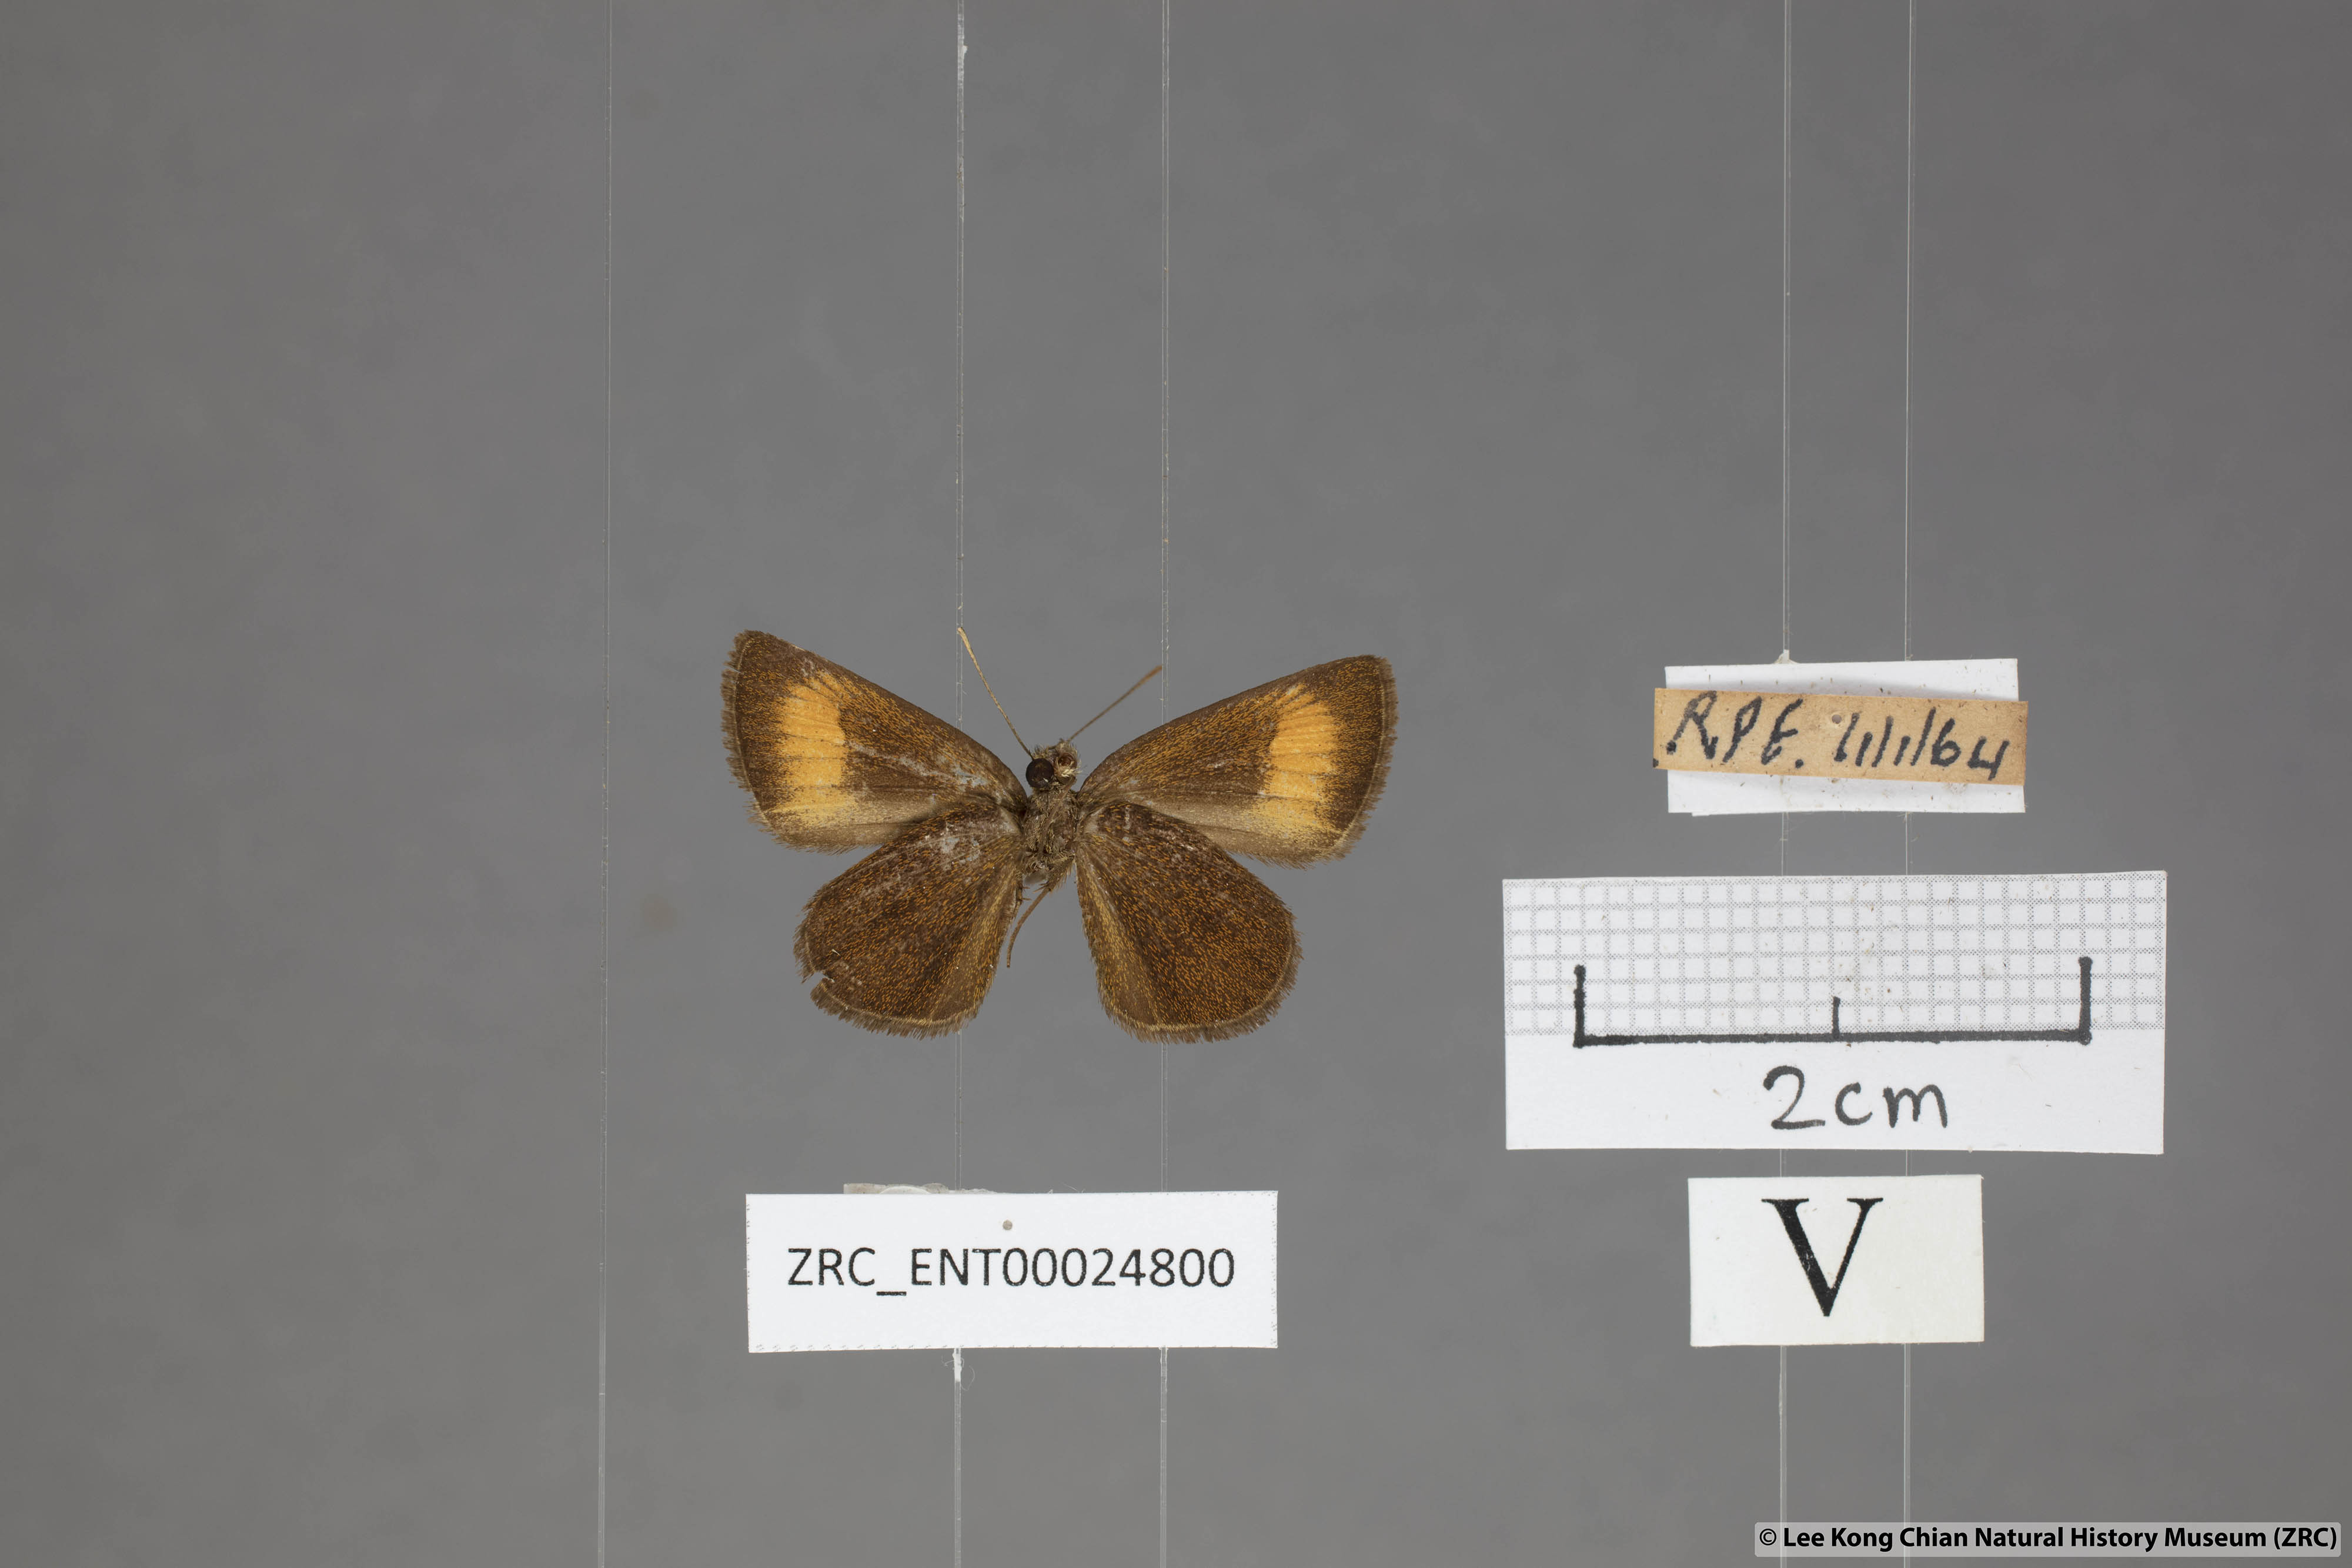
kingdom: Animalia
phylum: Arthropoda
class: Insecta
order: Lepidoptera
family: Hesperiidae
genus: Iambrix
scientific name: Iambrix Idmon obliquans
